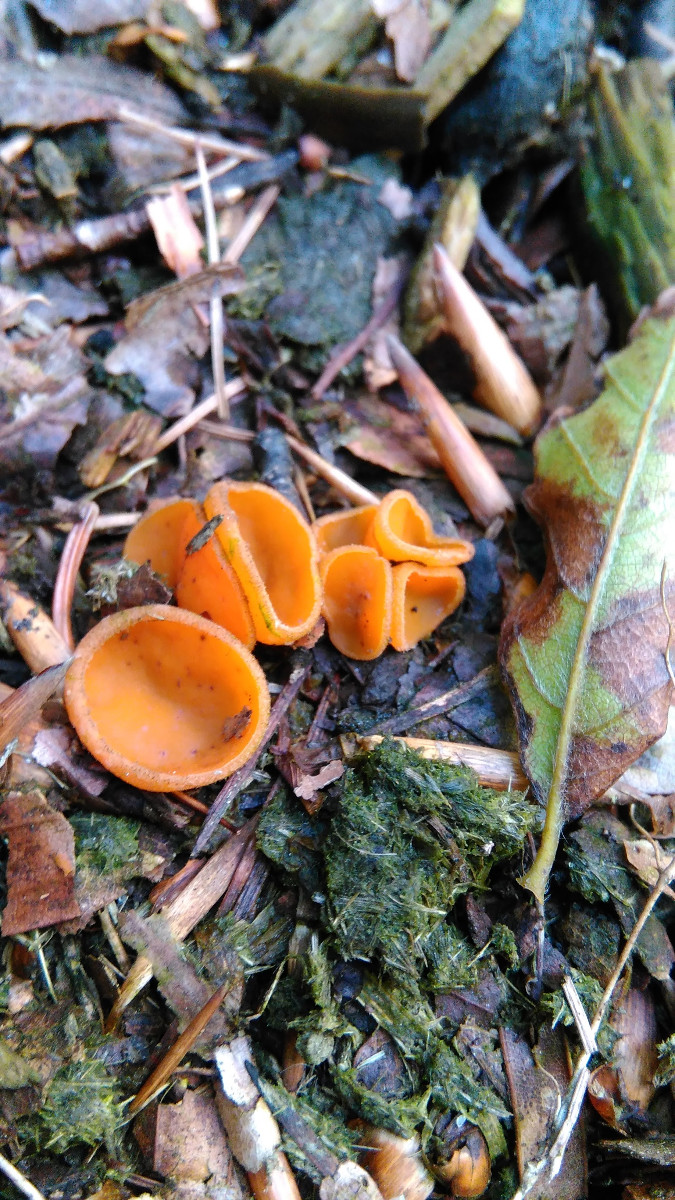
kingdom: Fungi
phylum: Ascomycota
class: Pezizomycetes
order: Pezizales
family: Pyronemataceae
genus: Melastiza
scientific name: Melastiza
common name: rødbæger
